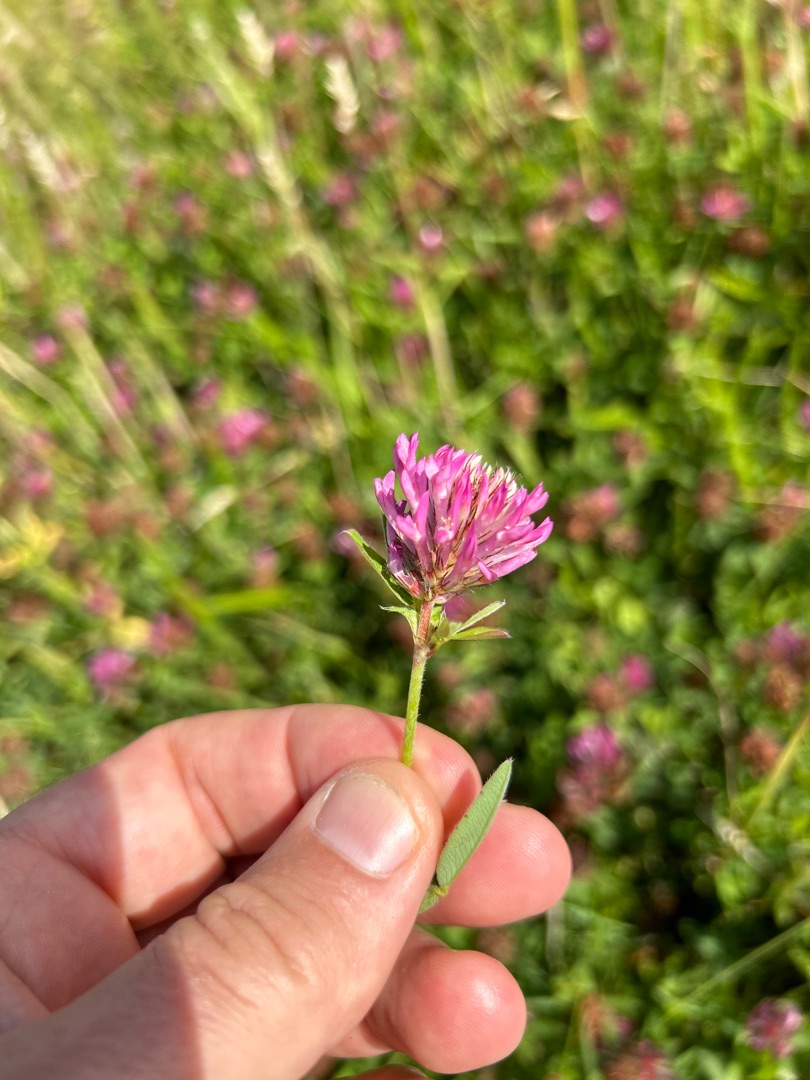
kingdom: Plantae
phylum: Tracheophyta
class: Magnoliopsida
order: Fabales
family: Fabaceae
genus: Trifolium
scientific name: Trifolium medium
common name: Bugtet kløver
